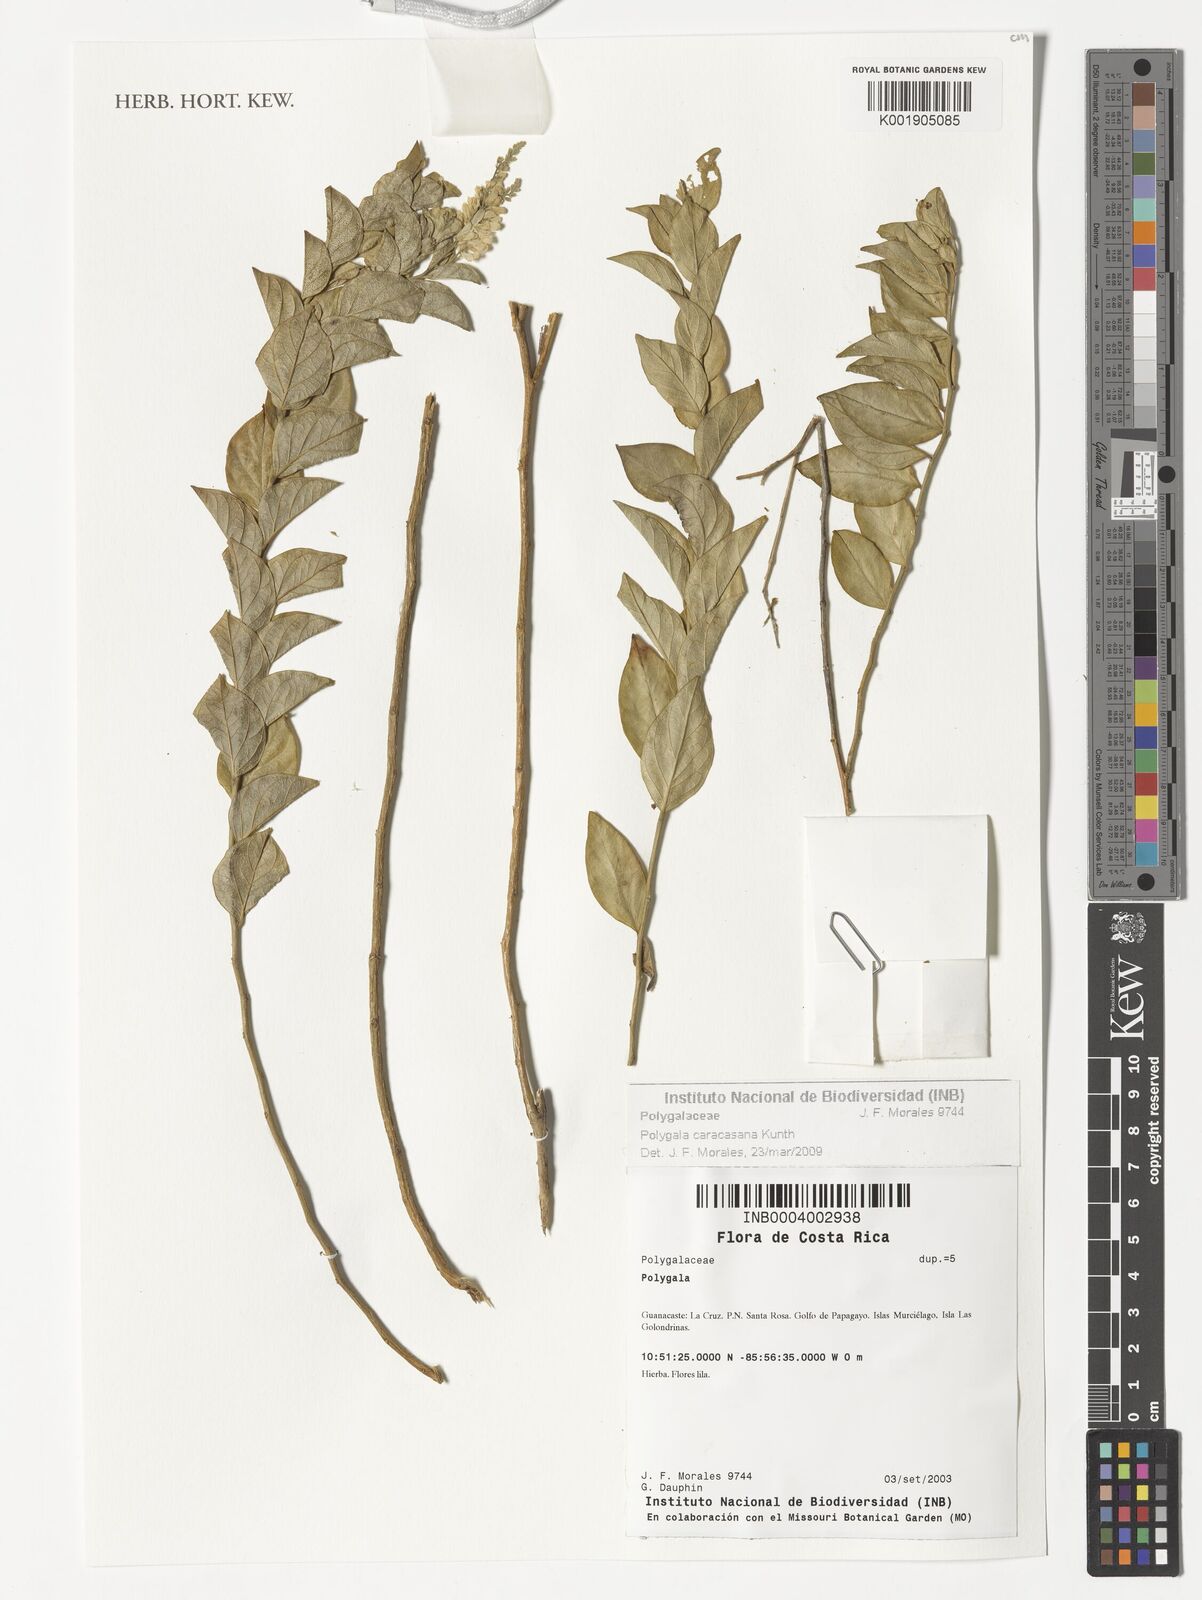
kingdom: Plantae
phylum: Tracheophyta
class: Magnoliopsida
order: Fabales
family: Polygalaceae
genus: Hebecarpa
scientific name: Hebecarpa caracasana
